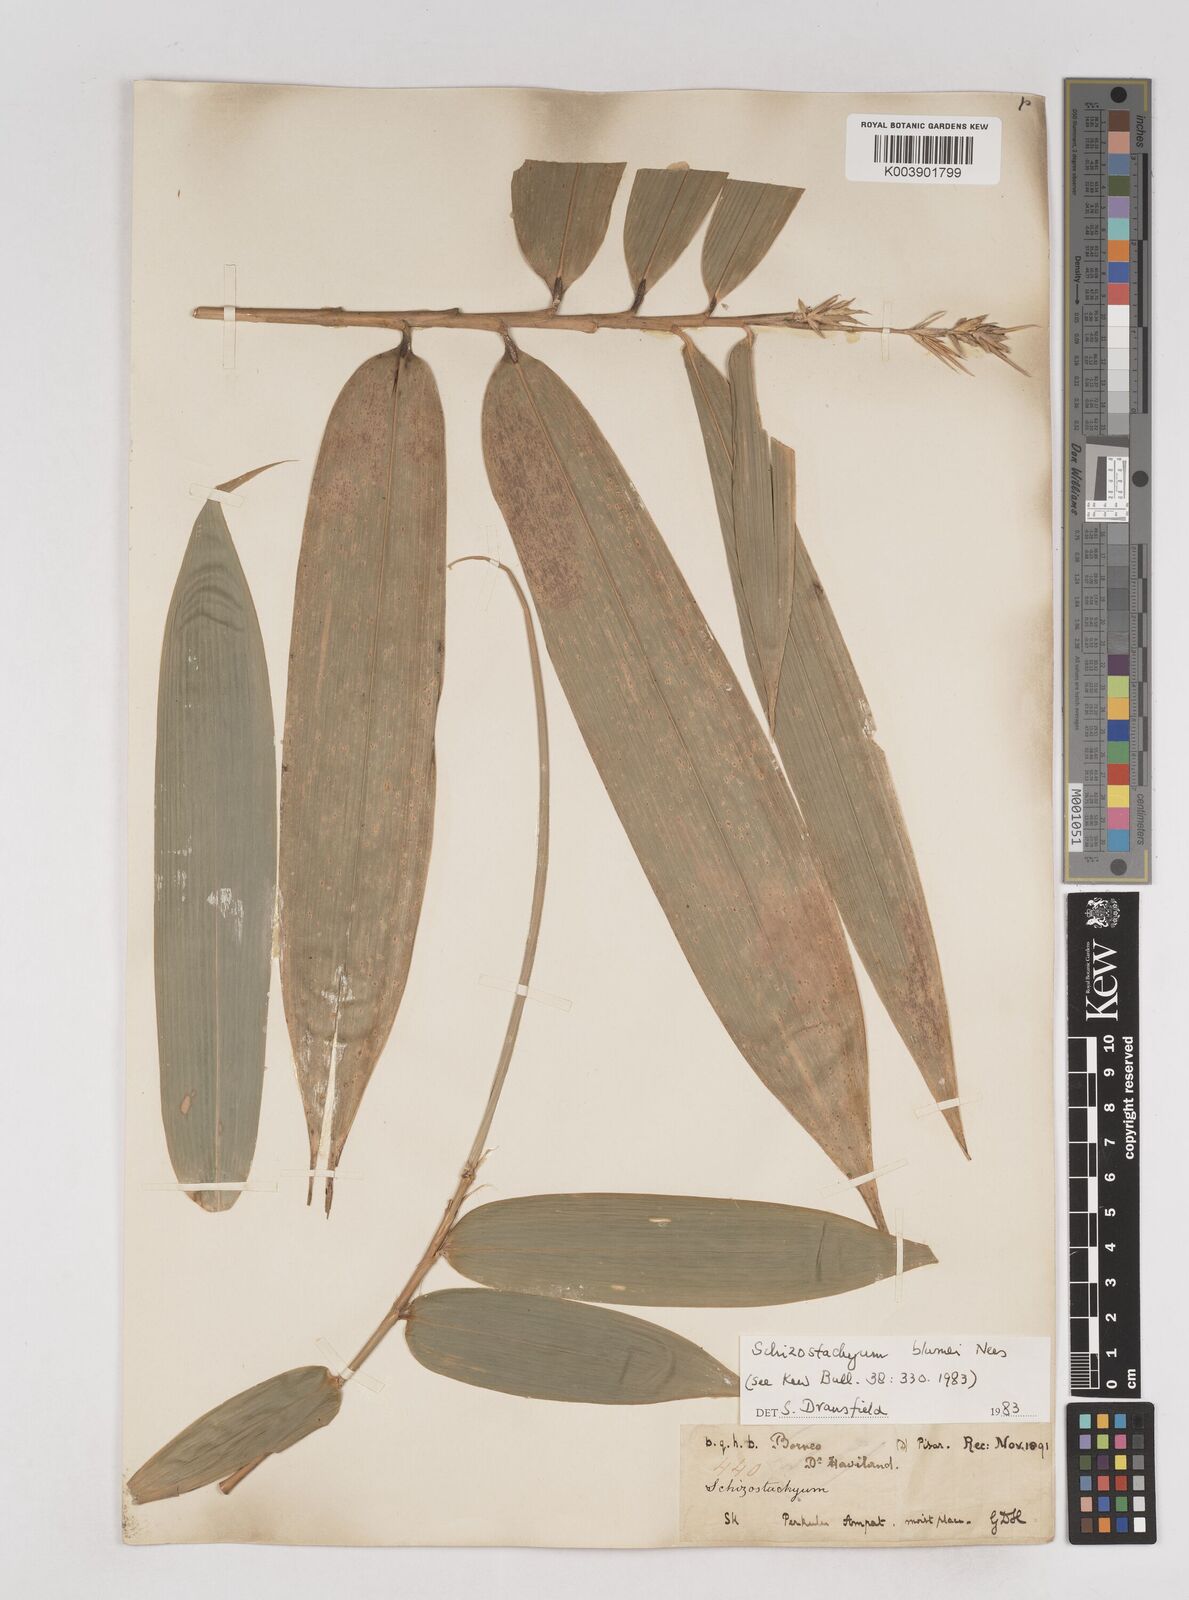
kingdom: Plantae
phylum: Tracheophyta
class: Liliopsida
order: Poales
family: Poaceae
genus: Schizostachyum
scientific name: Schizostachyum blumei
